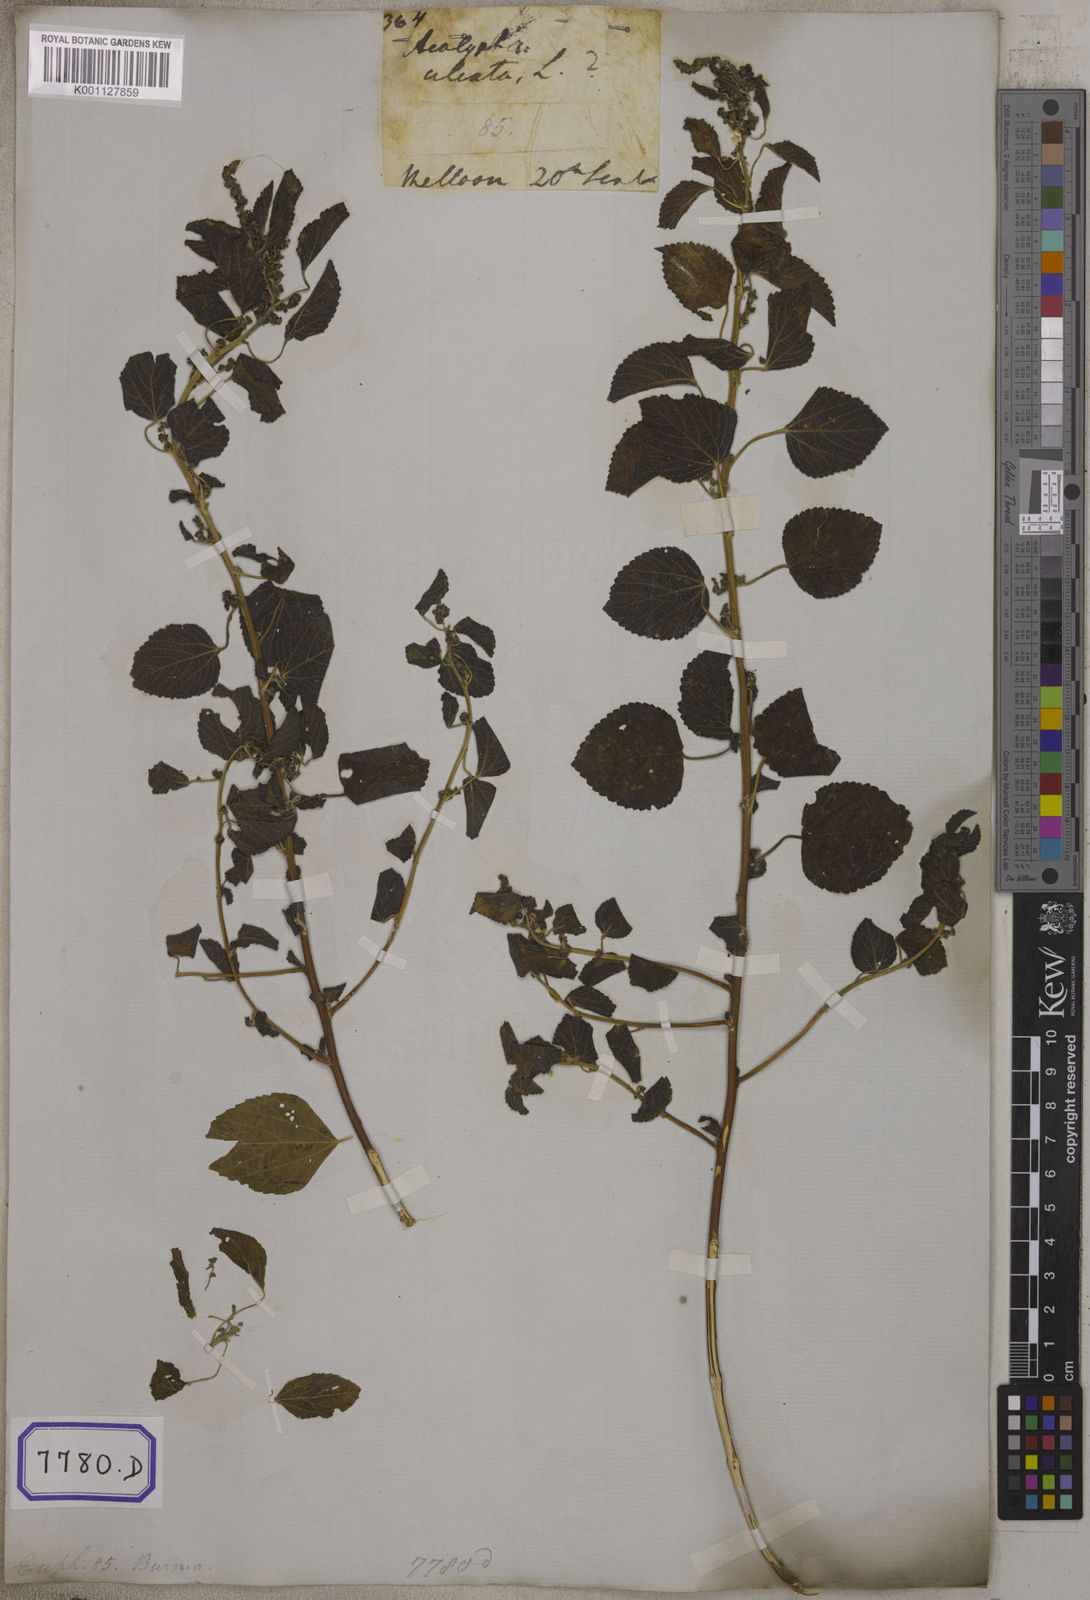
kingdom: Plantae
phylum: Tracheophyta
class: Magnoliopsida
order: Malpighiales
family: Euphorbiaceae
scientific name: Euphorbiaceae
